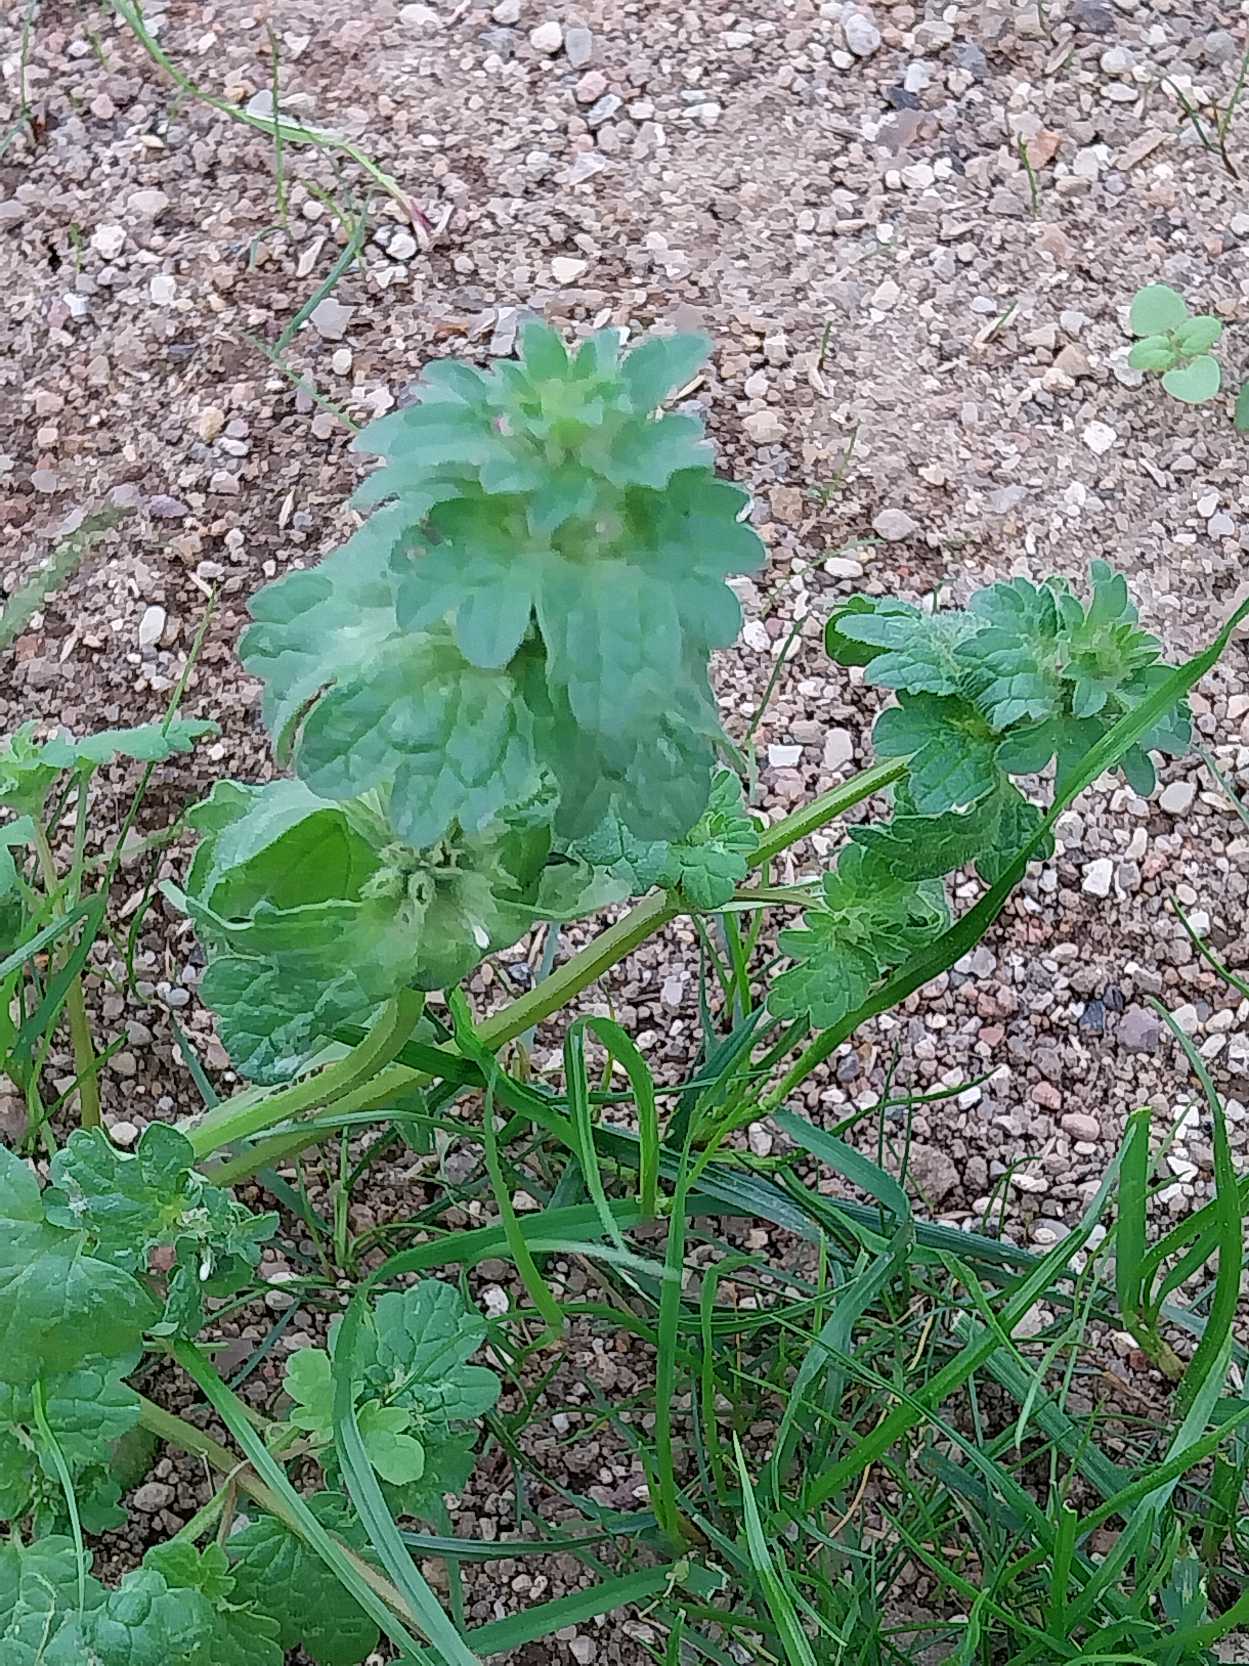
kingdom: Plantae
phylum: Tracheophyta
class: Magnoliopsida
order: Lamiales
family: Lamiaceae
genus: Lamium
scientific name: Lamium amplexicaule
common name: Liden tvetand
